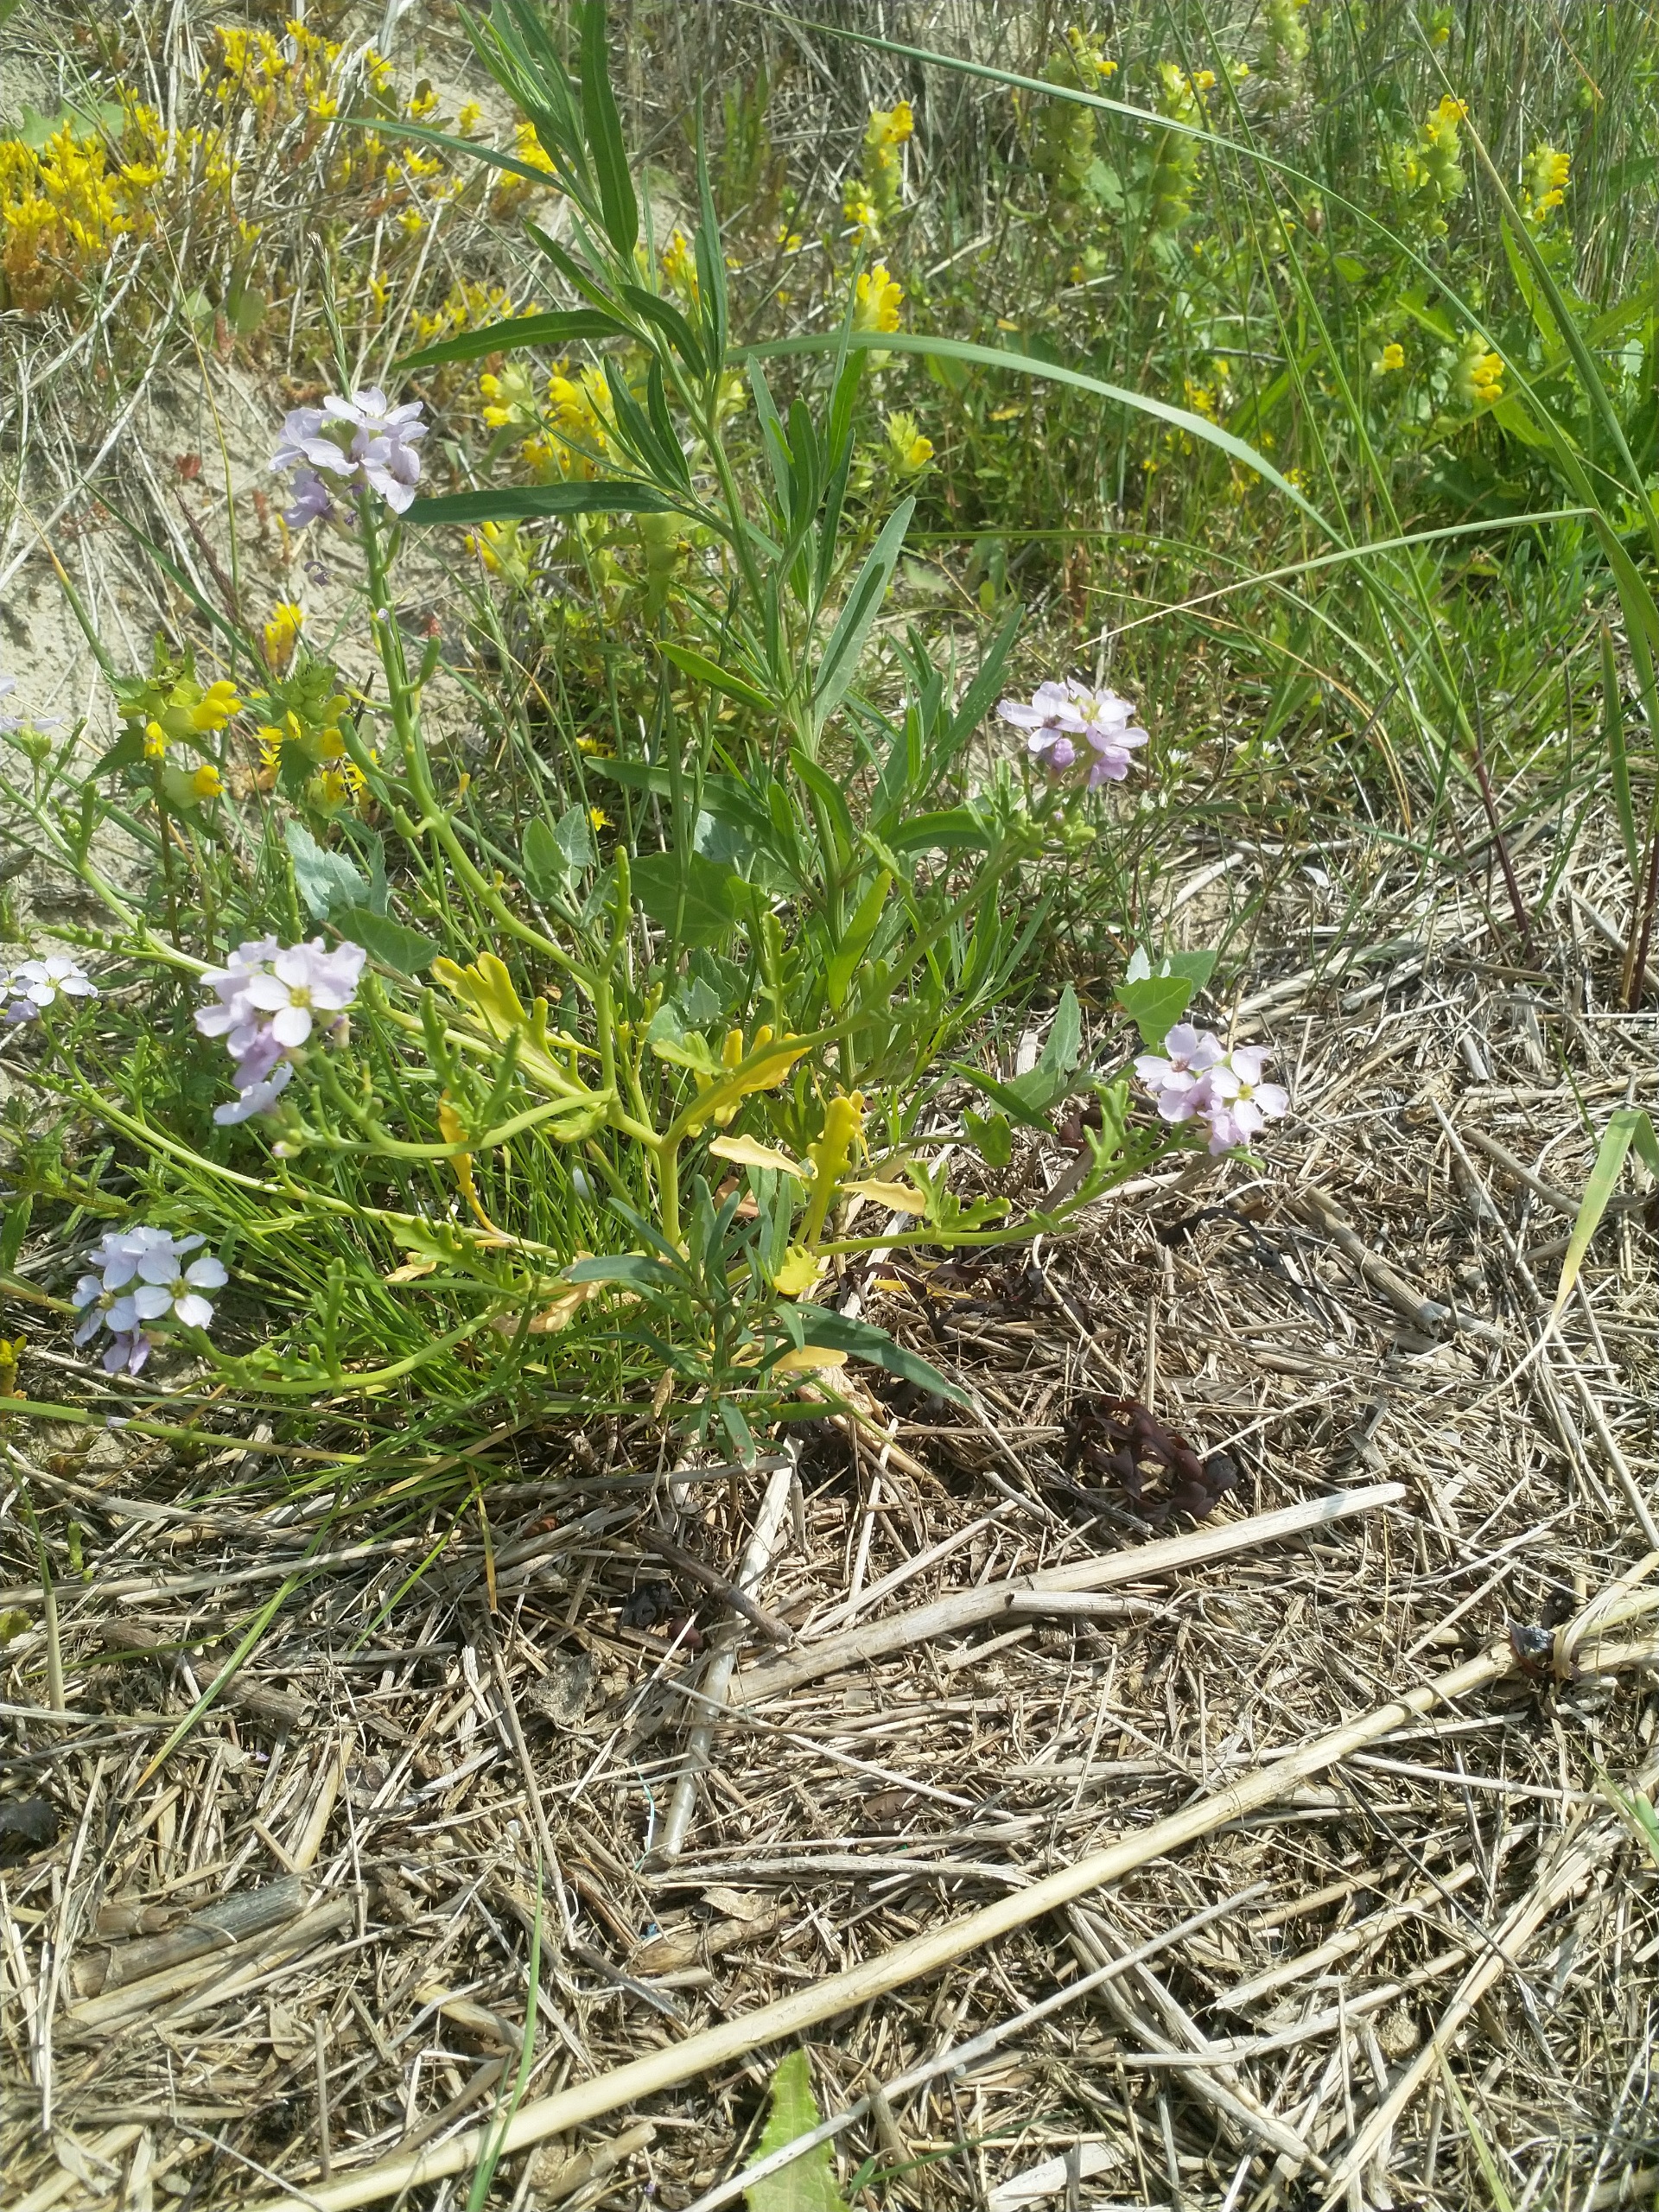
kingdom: Plantae
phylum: Tracheophyta
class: Magnoliopsida
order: Brassicales
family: Brassicaceae
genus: Cakile
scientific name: Cakile maritima
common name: Strandsennep
